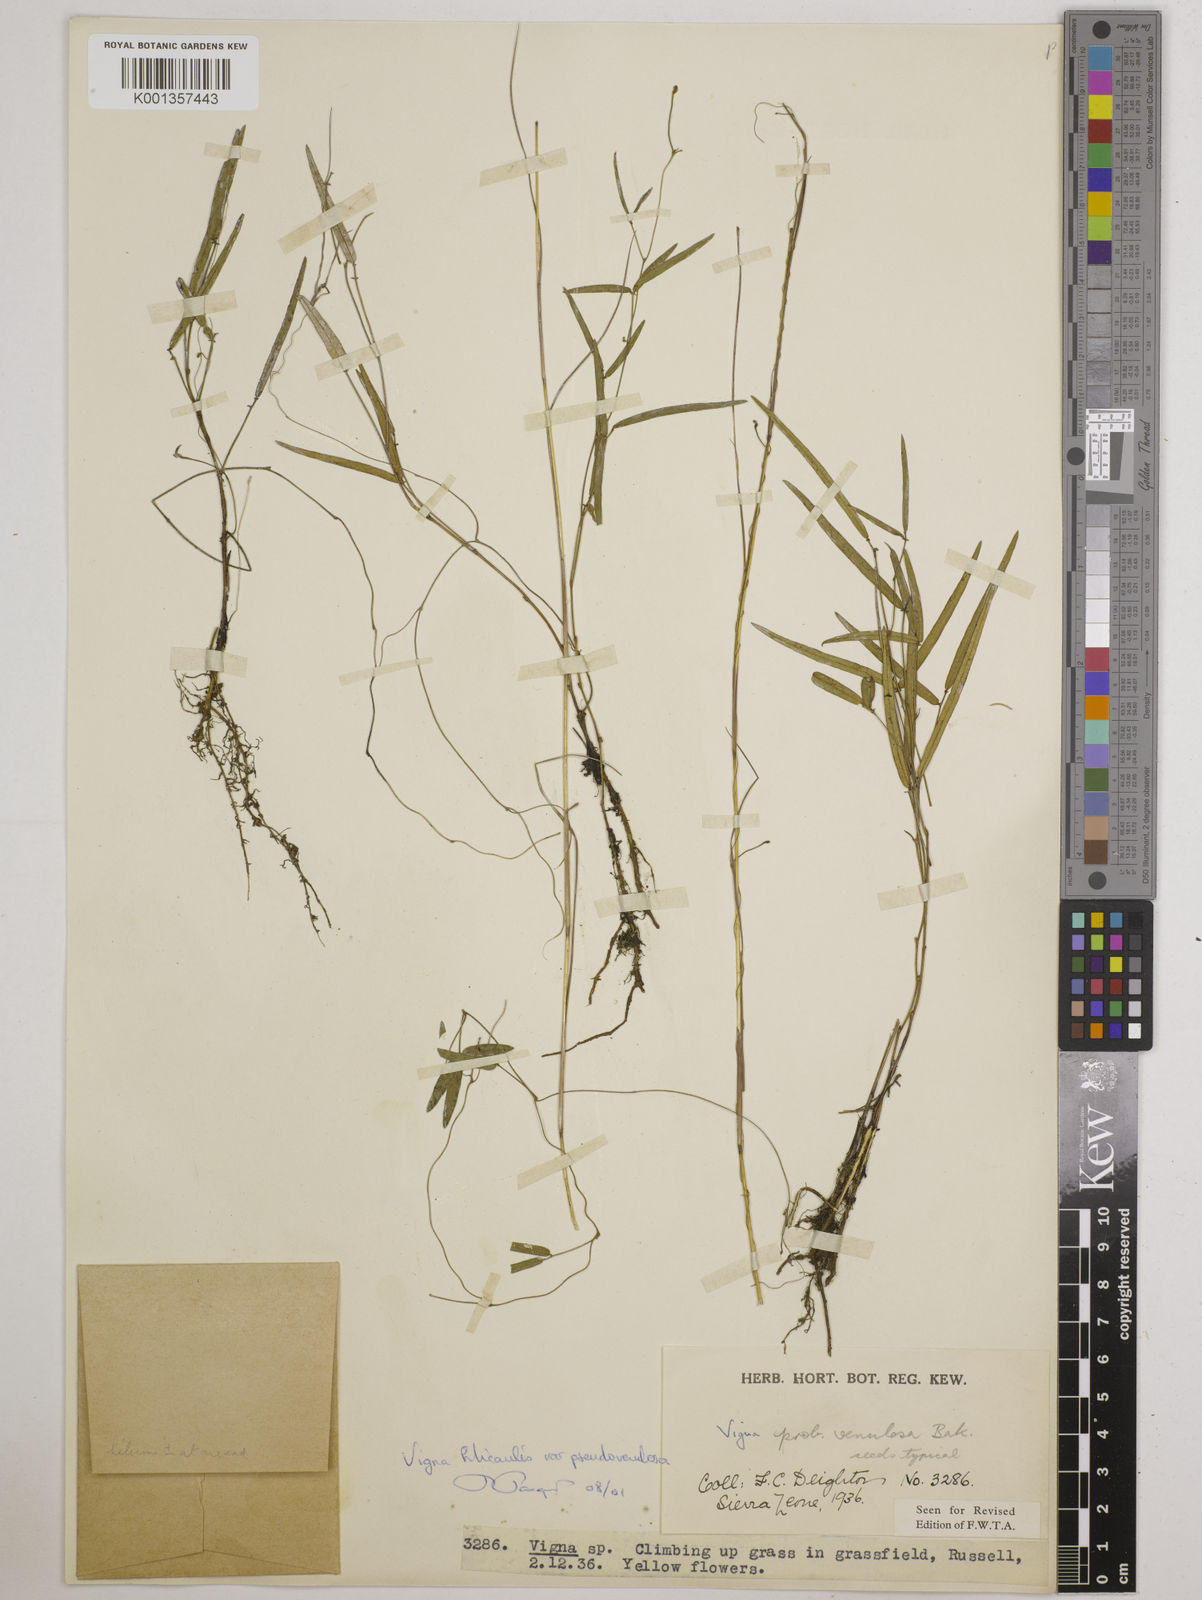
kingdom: Plantae
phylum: Tracheophyta
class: Magnoliopsida
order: Fabales
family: Fabaceae
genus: Vigna
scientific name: Vigna filicaulis
